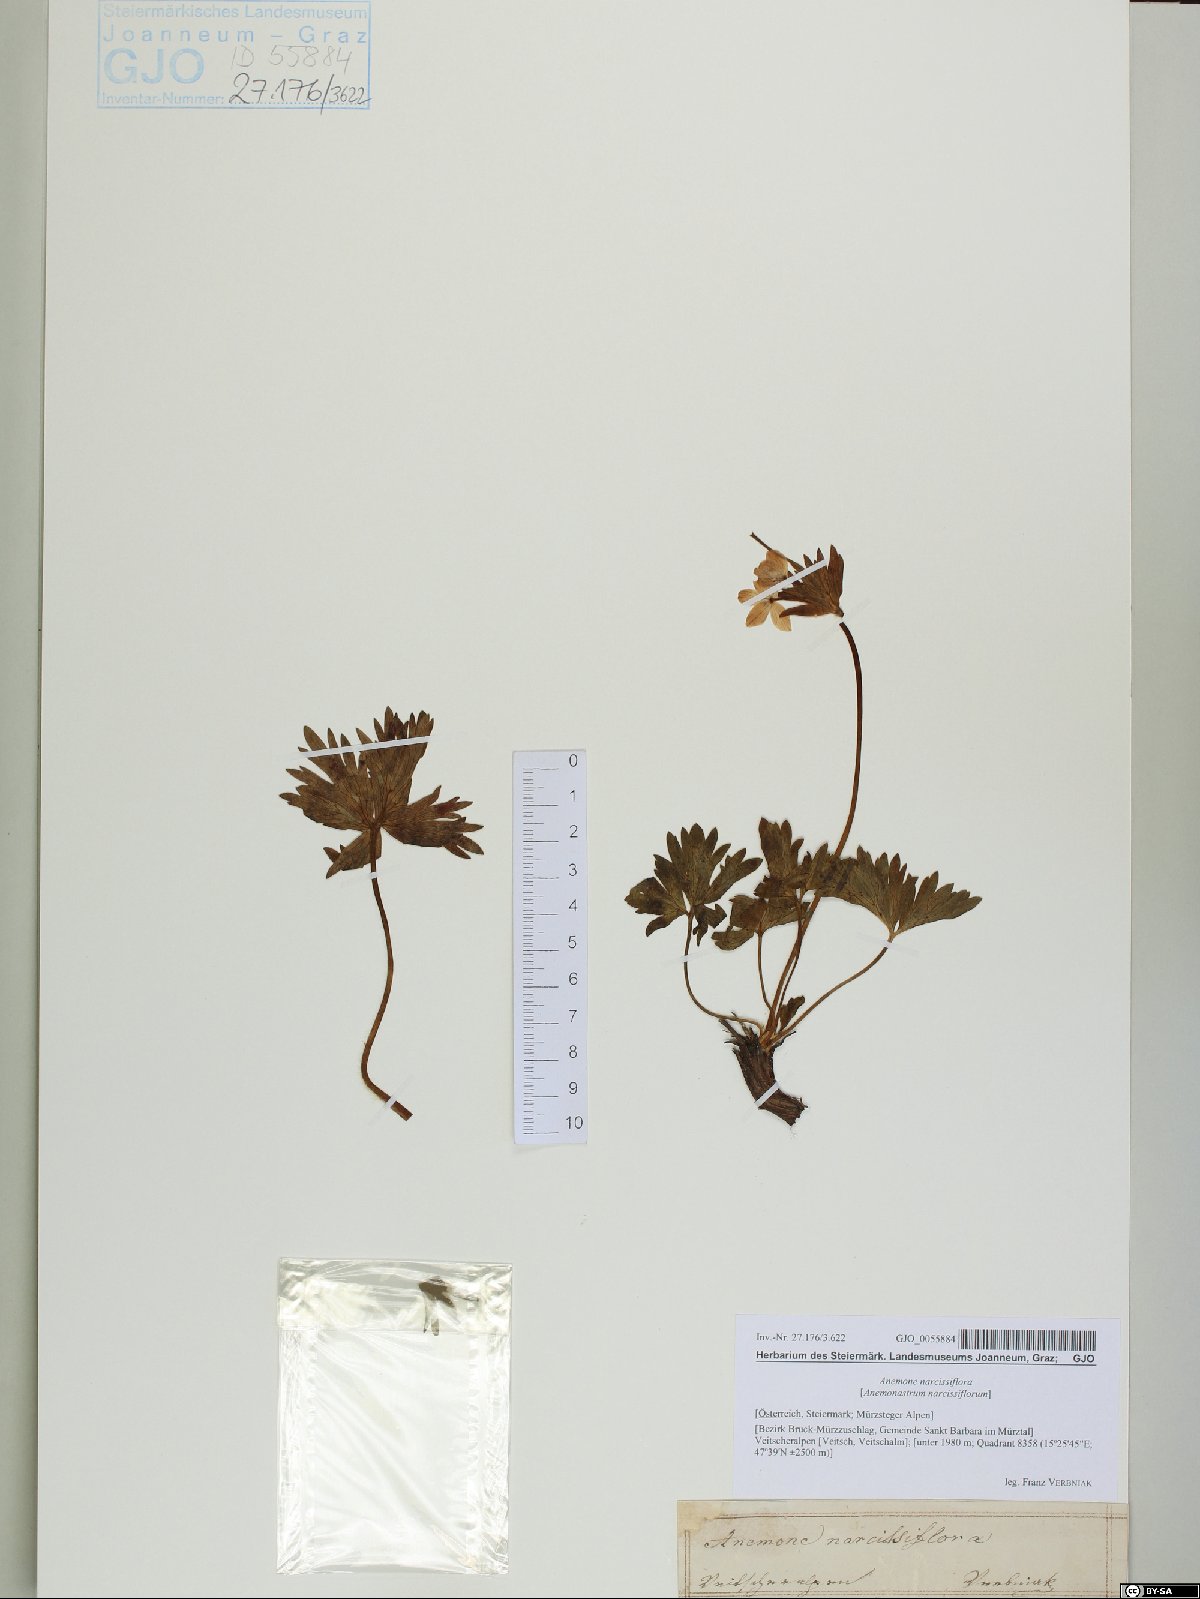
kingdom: Plantae
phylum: Tracheophyta
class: Magnoliopsida
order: Ranunculales
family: Ranunculaceae
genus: Anemonastrum
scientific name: Anemonastrum narcissiflorum
